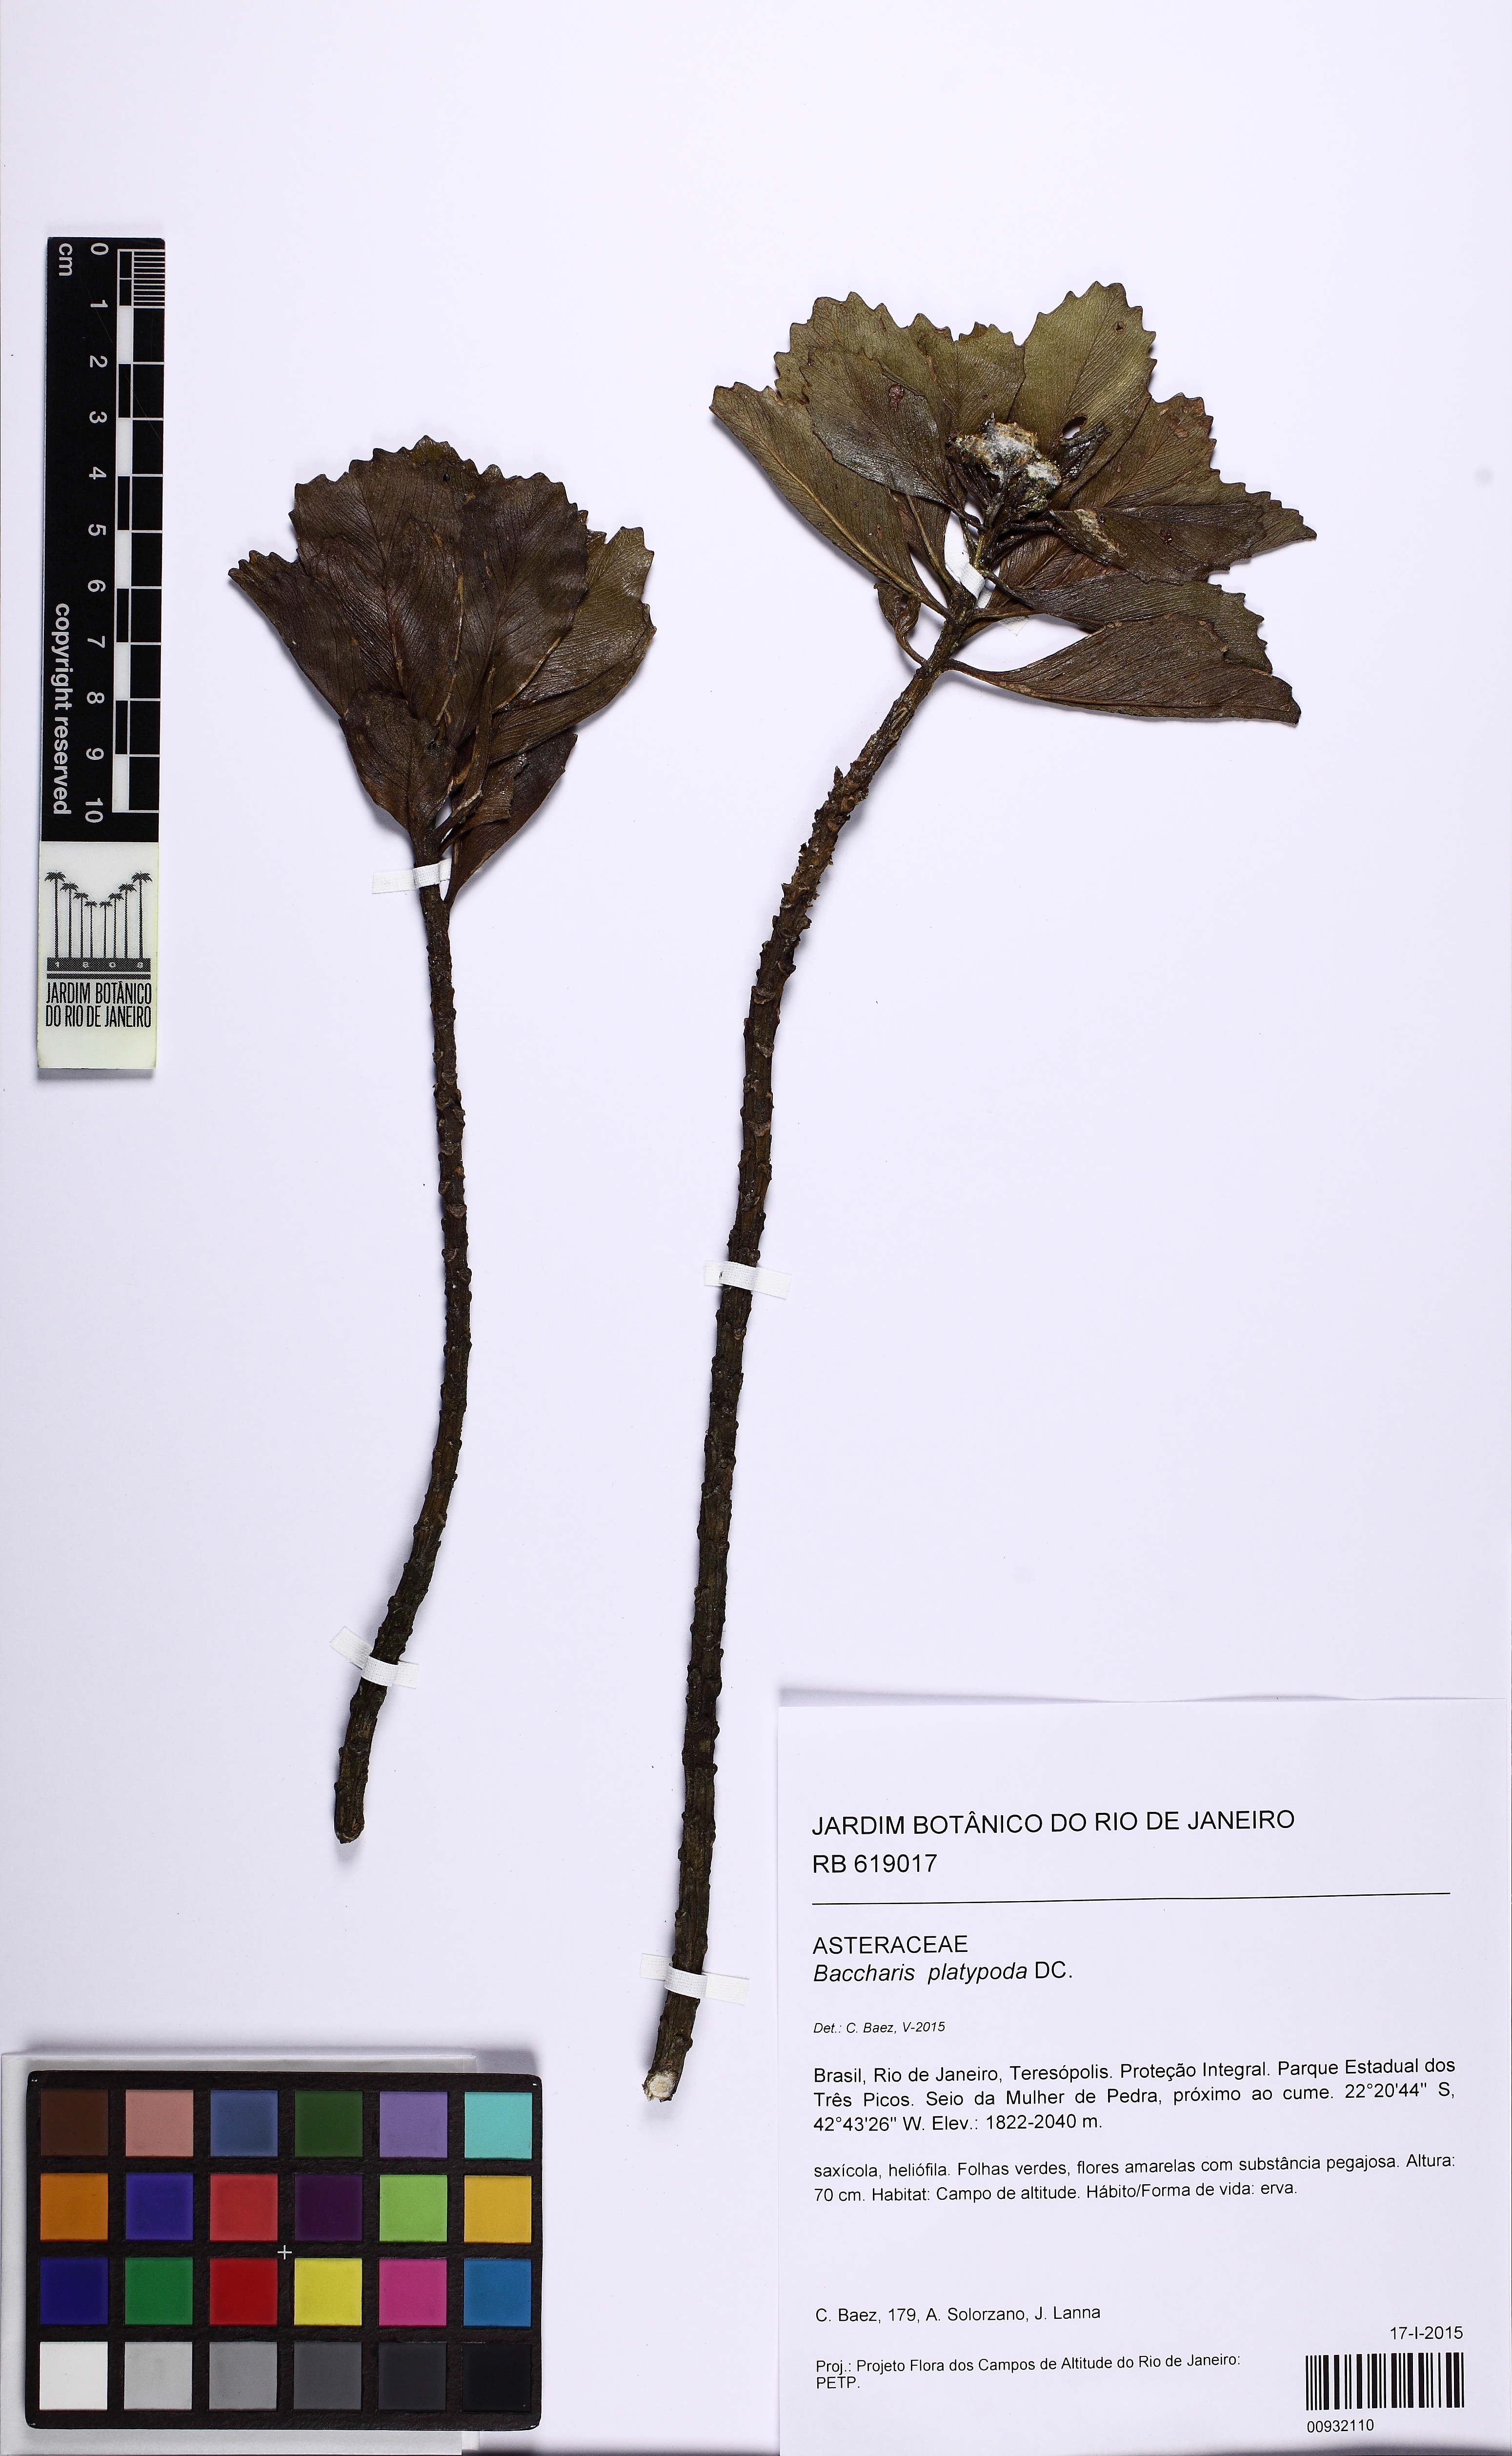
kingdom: Plantae
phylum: Tracheophyta
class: Magnoliopsida
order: Asterales
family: Asteraceae
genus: Baccharis
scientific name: Baccharis platypoda
